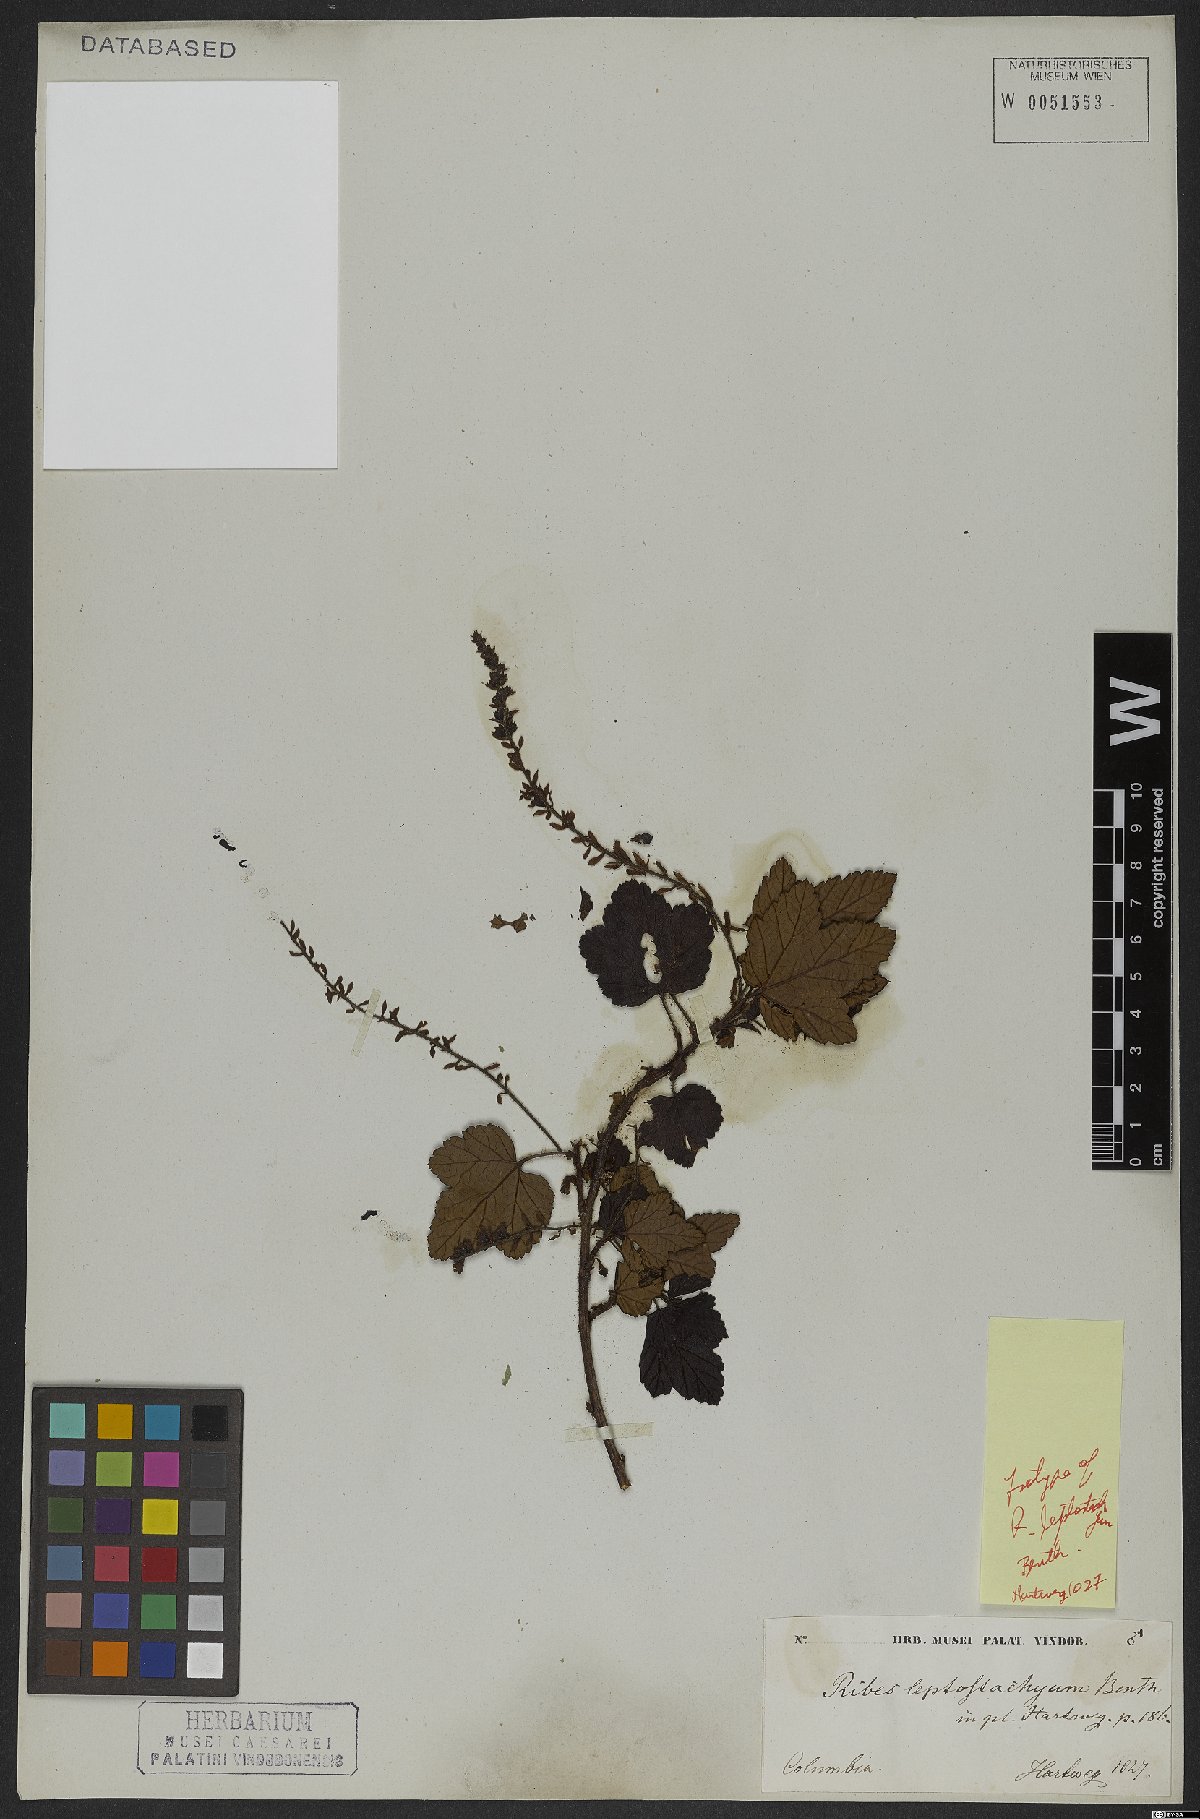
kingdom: Plantae
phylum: Tracheophyta
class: Magnoliopsida
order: Saxifragales
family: Grossulariaceae
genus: Ribes
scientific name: Ribes leptostachyum
